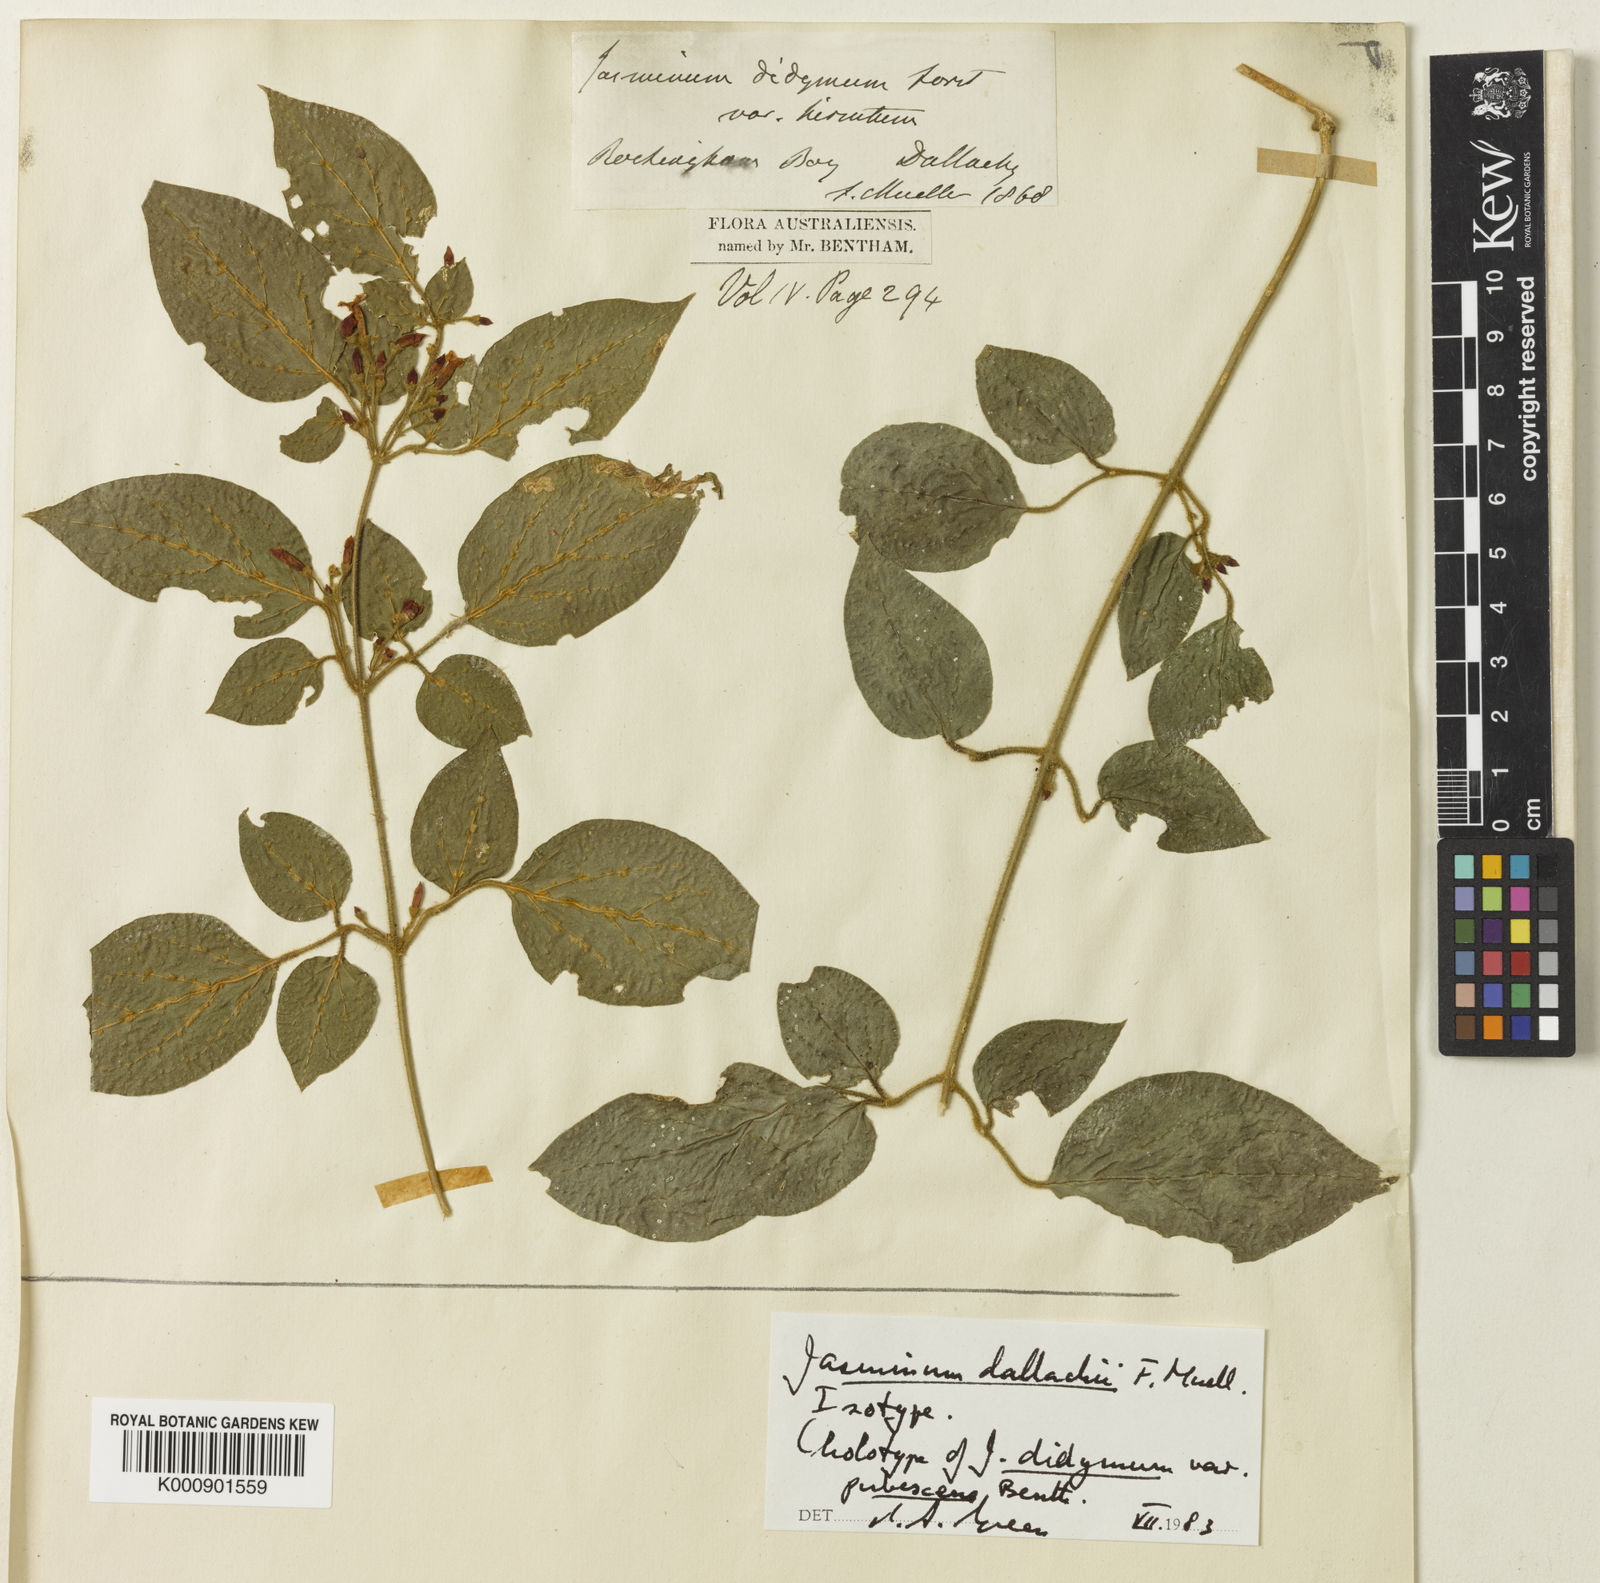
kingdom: Plantae
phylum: Tracheophyta
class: Magnoliopsida
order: Lamiales
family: Oleaceae
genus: Jasminum
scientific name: Jasminum
